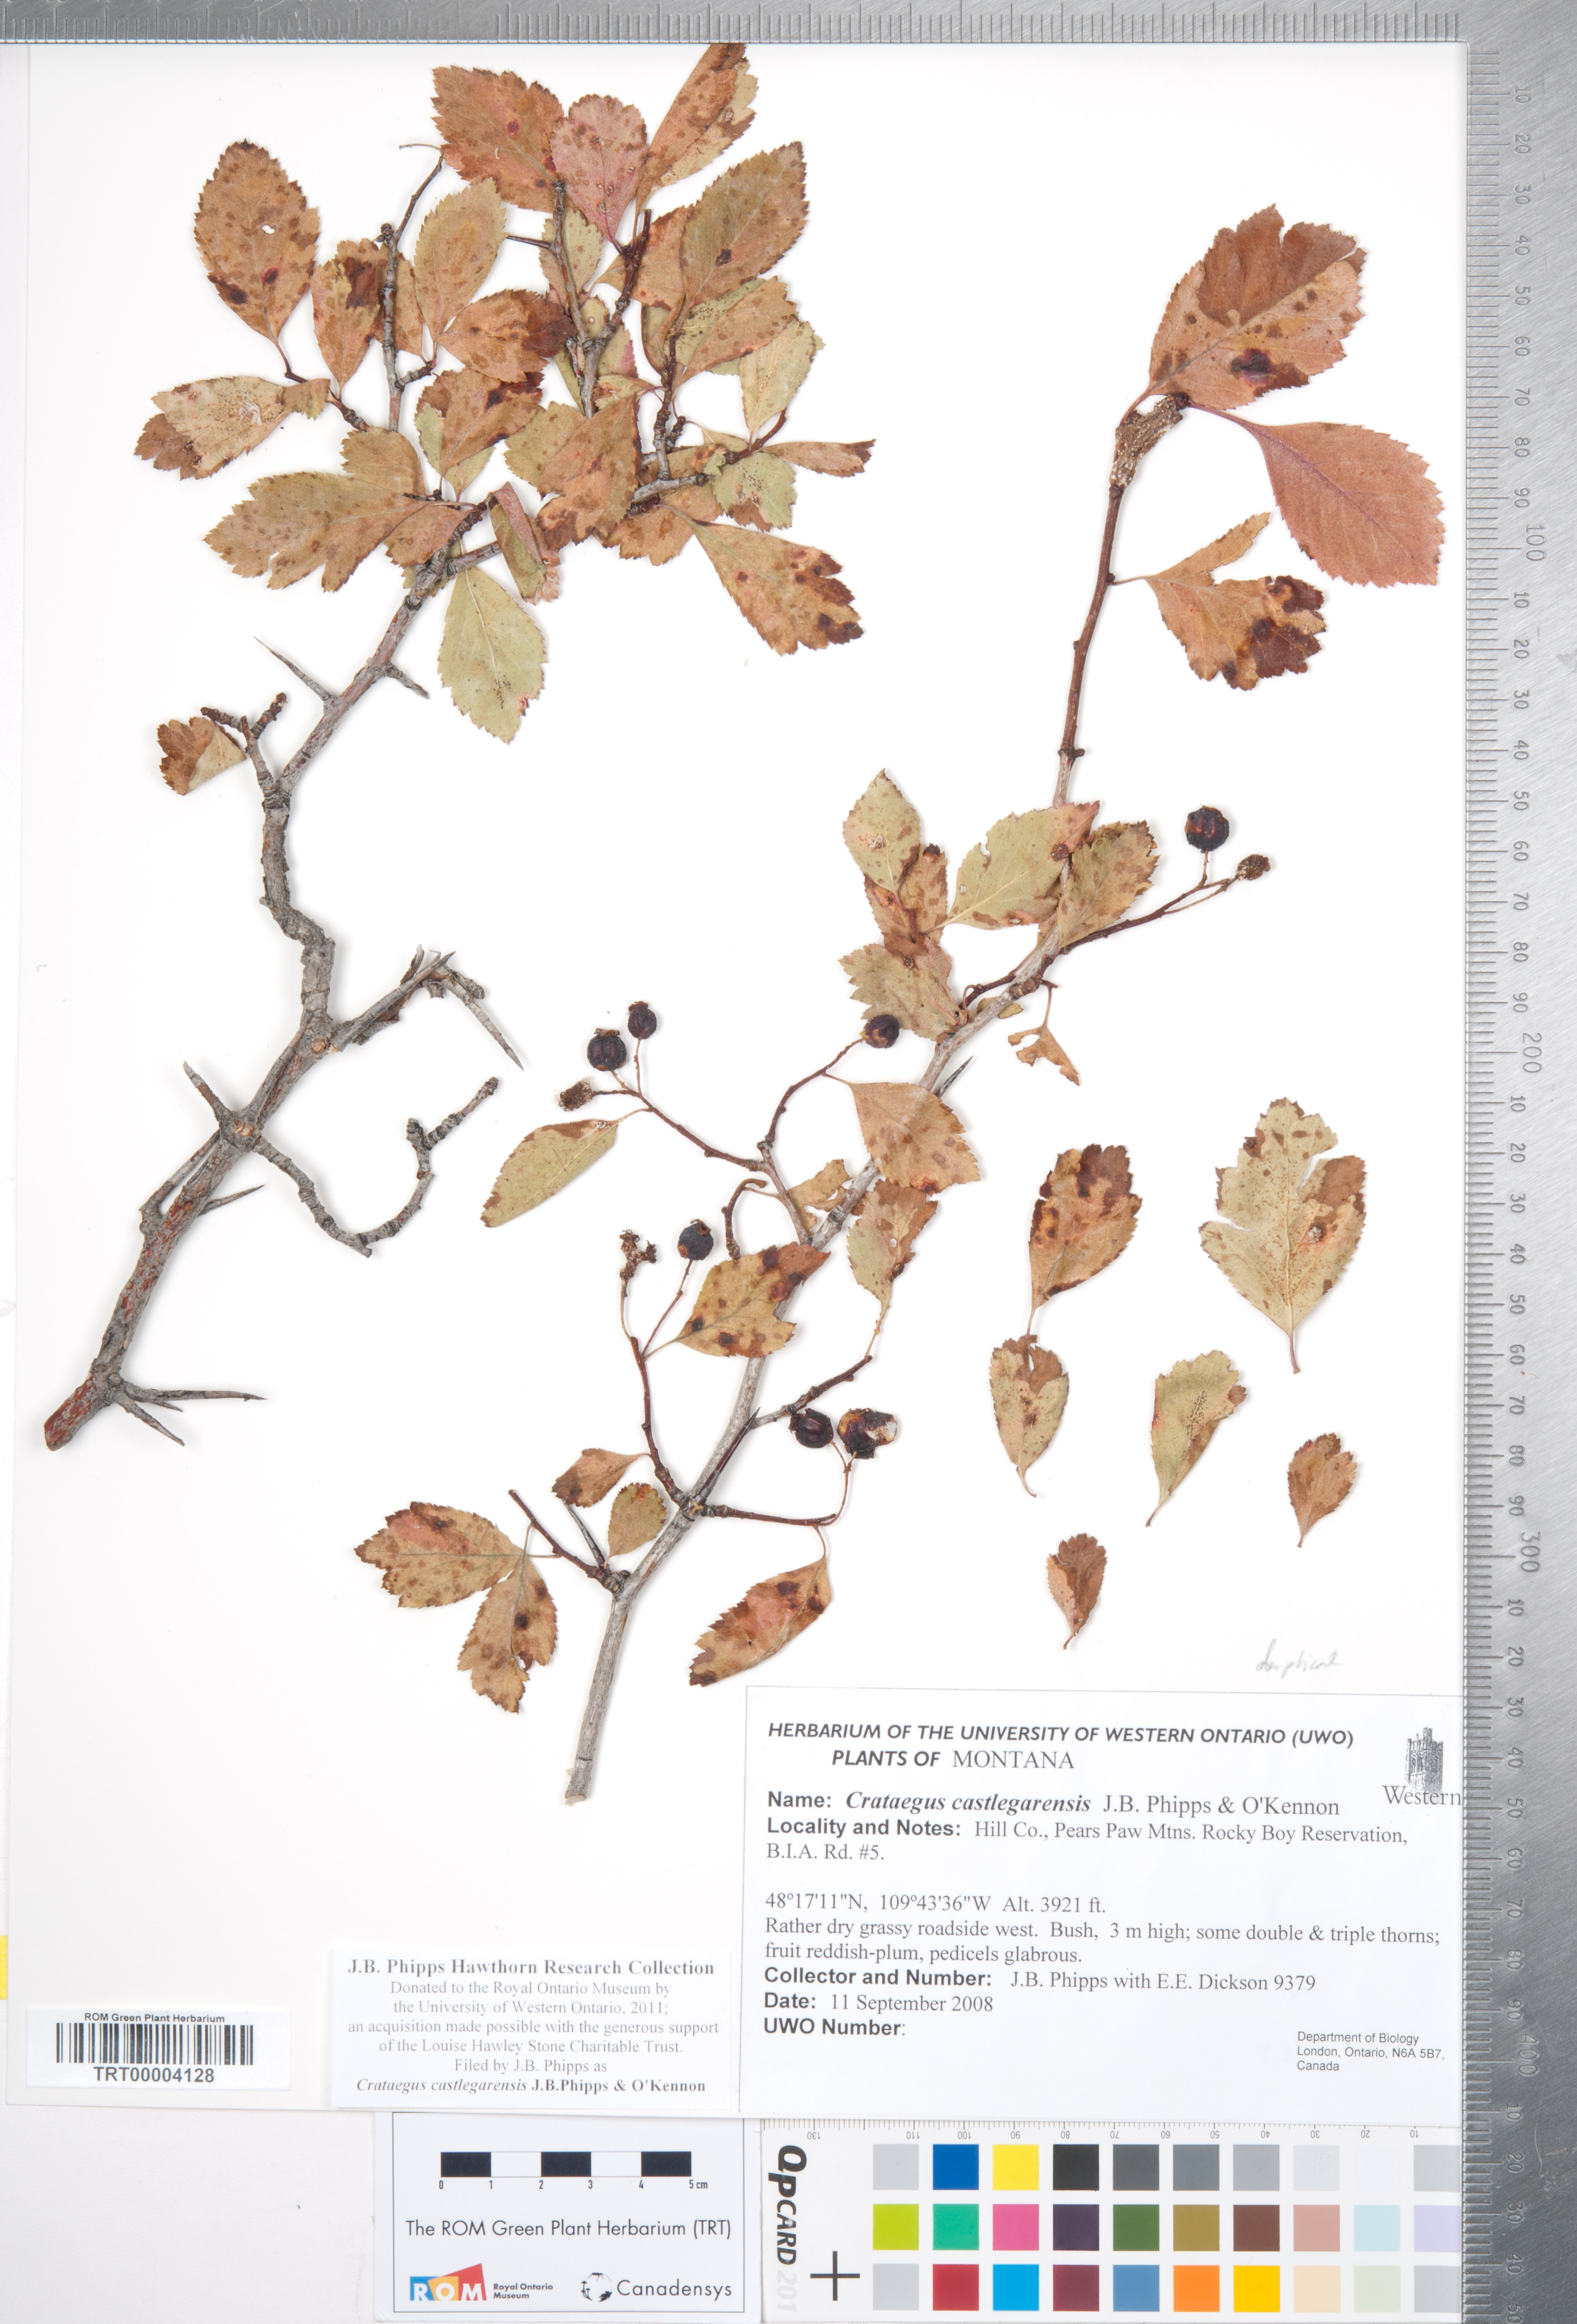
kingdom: Plantae
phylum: Tracheophyta
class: Magnoliopsida
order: Rosales
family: Rosaceae
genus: Crataegus
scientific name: Crataegus castlegarensis
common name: Castlegar hawthorn
